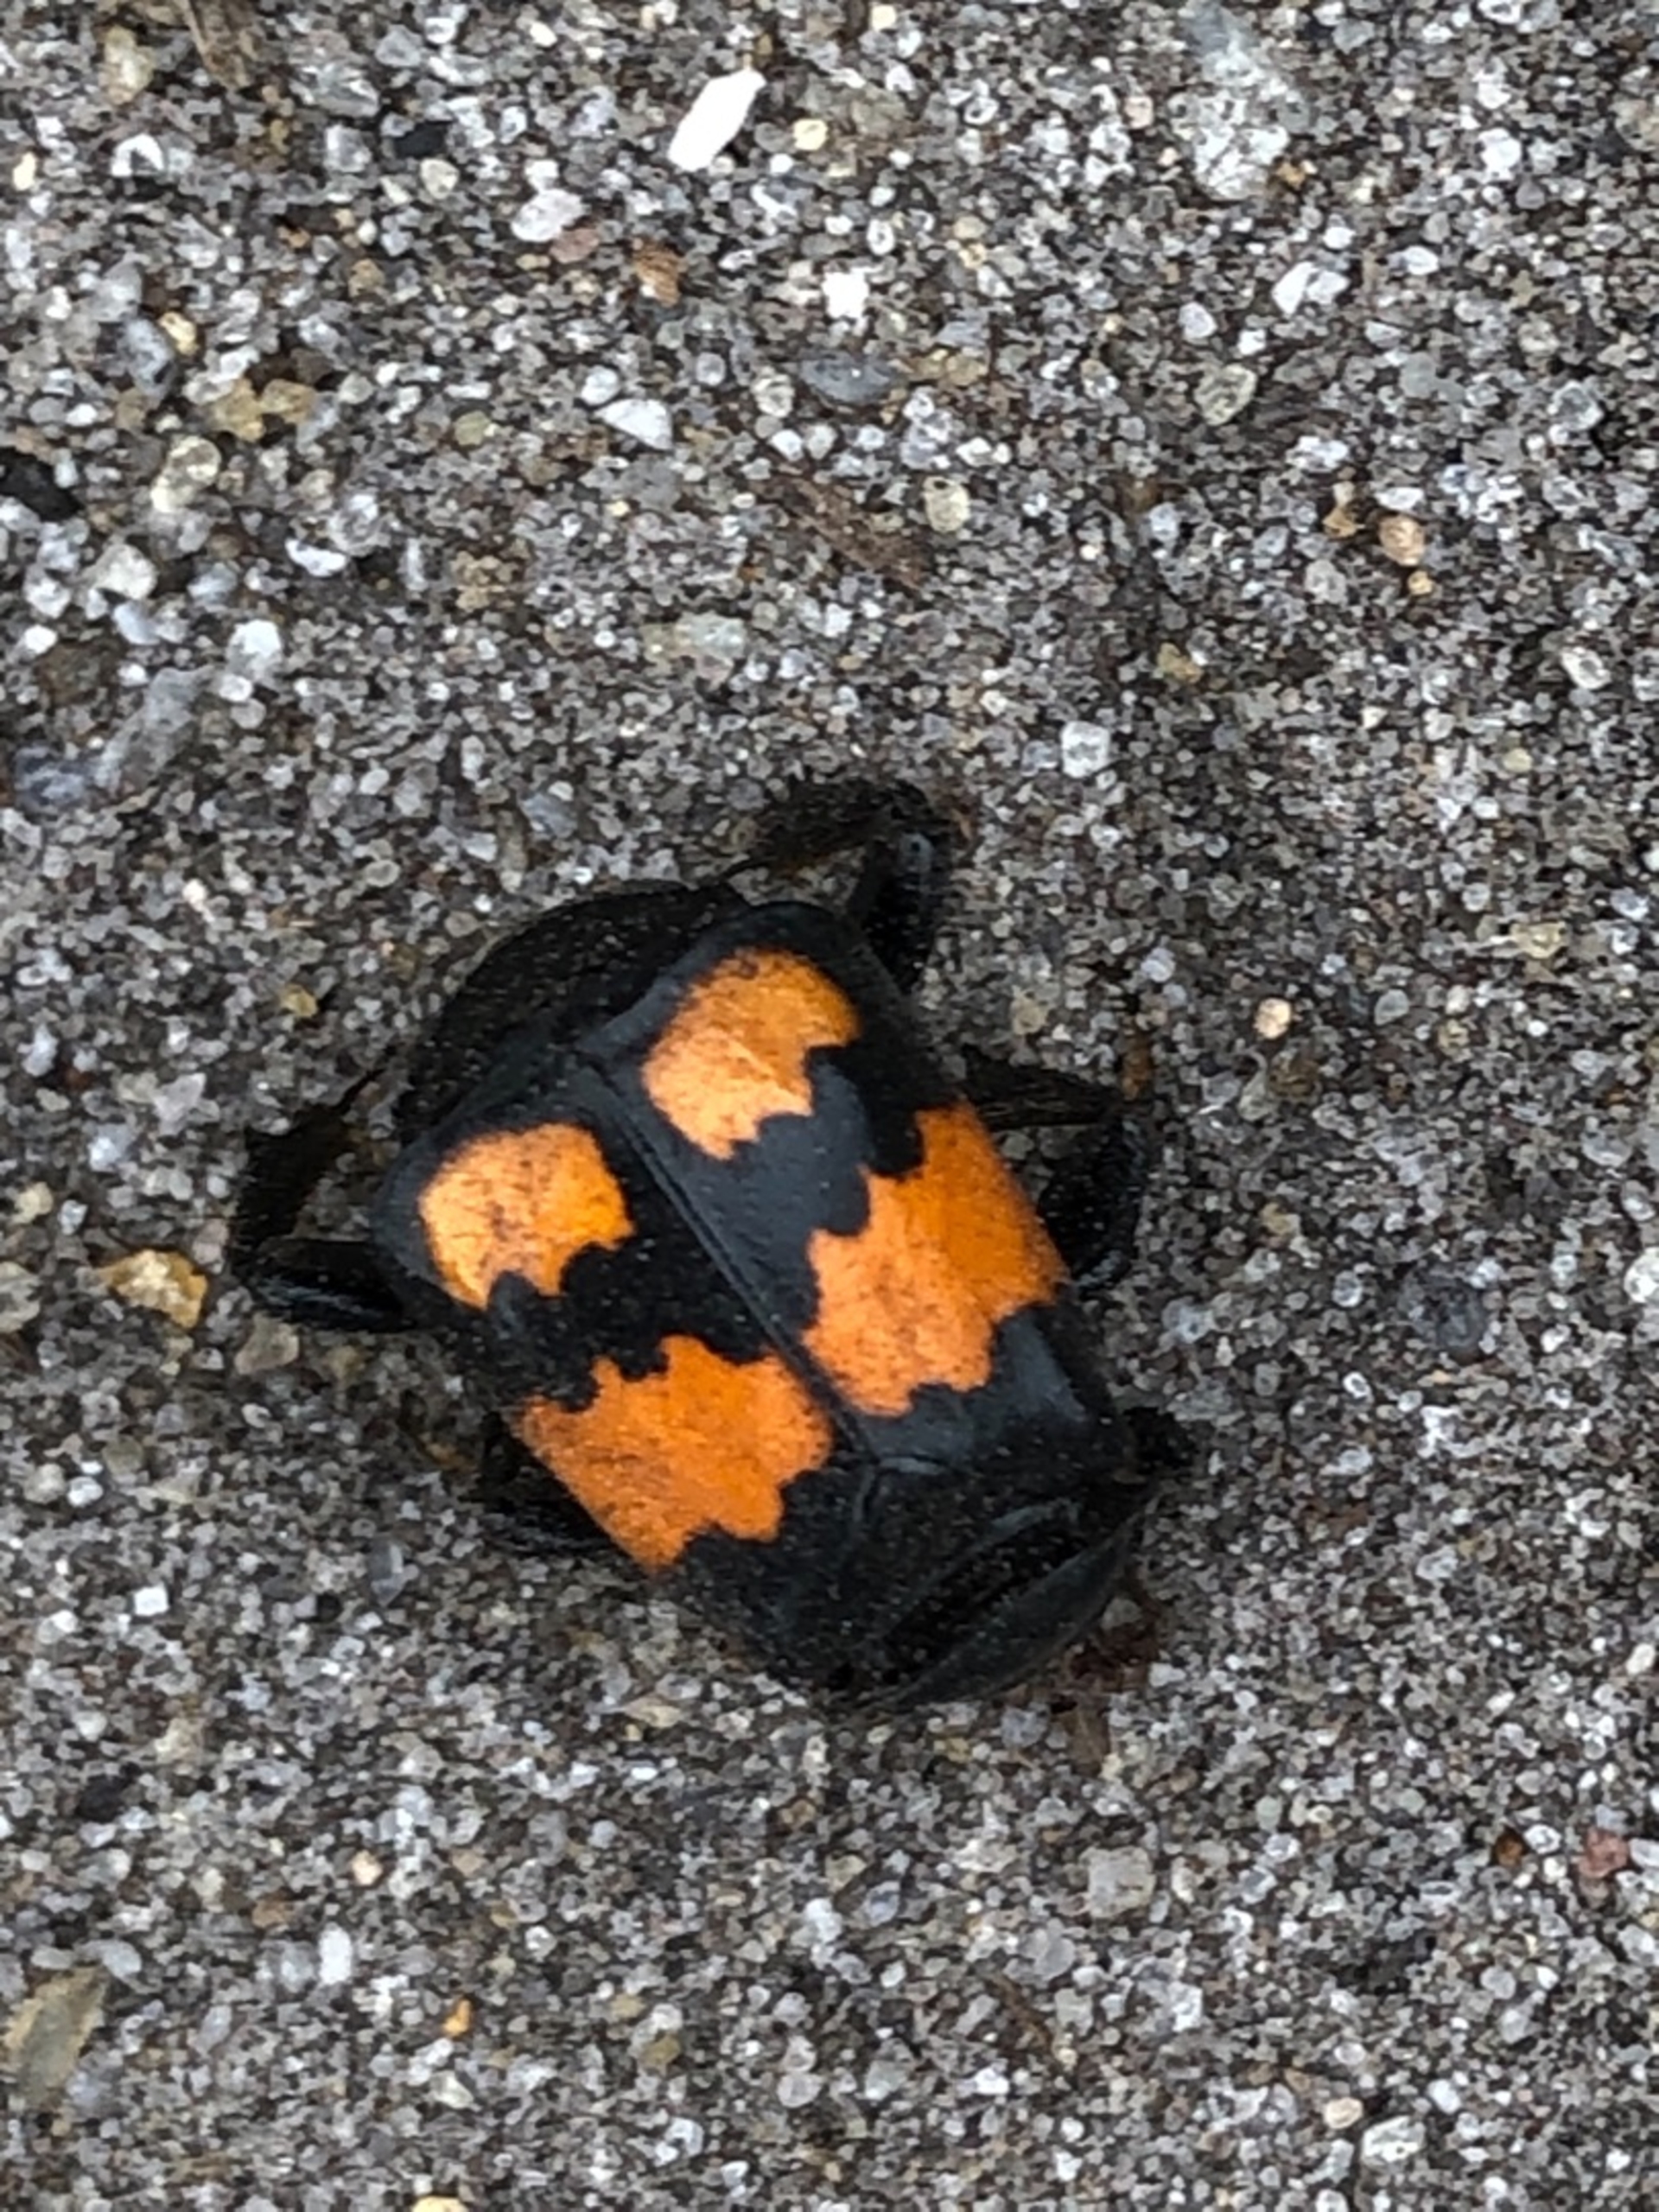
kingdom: Animalia
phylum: Arthropoda
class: Insecta
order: Coleoptera
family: Staphylinidae
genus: Nicrophorus
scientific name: Nicrophorus vespilloides
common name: Sortkøllet ådselgraver
